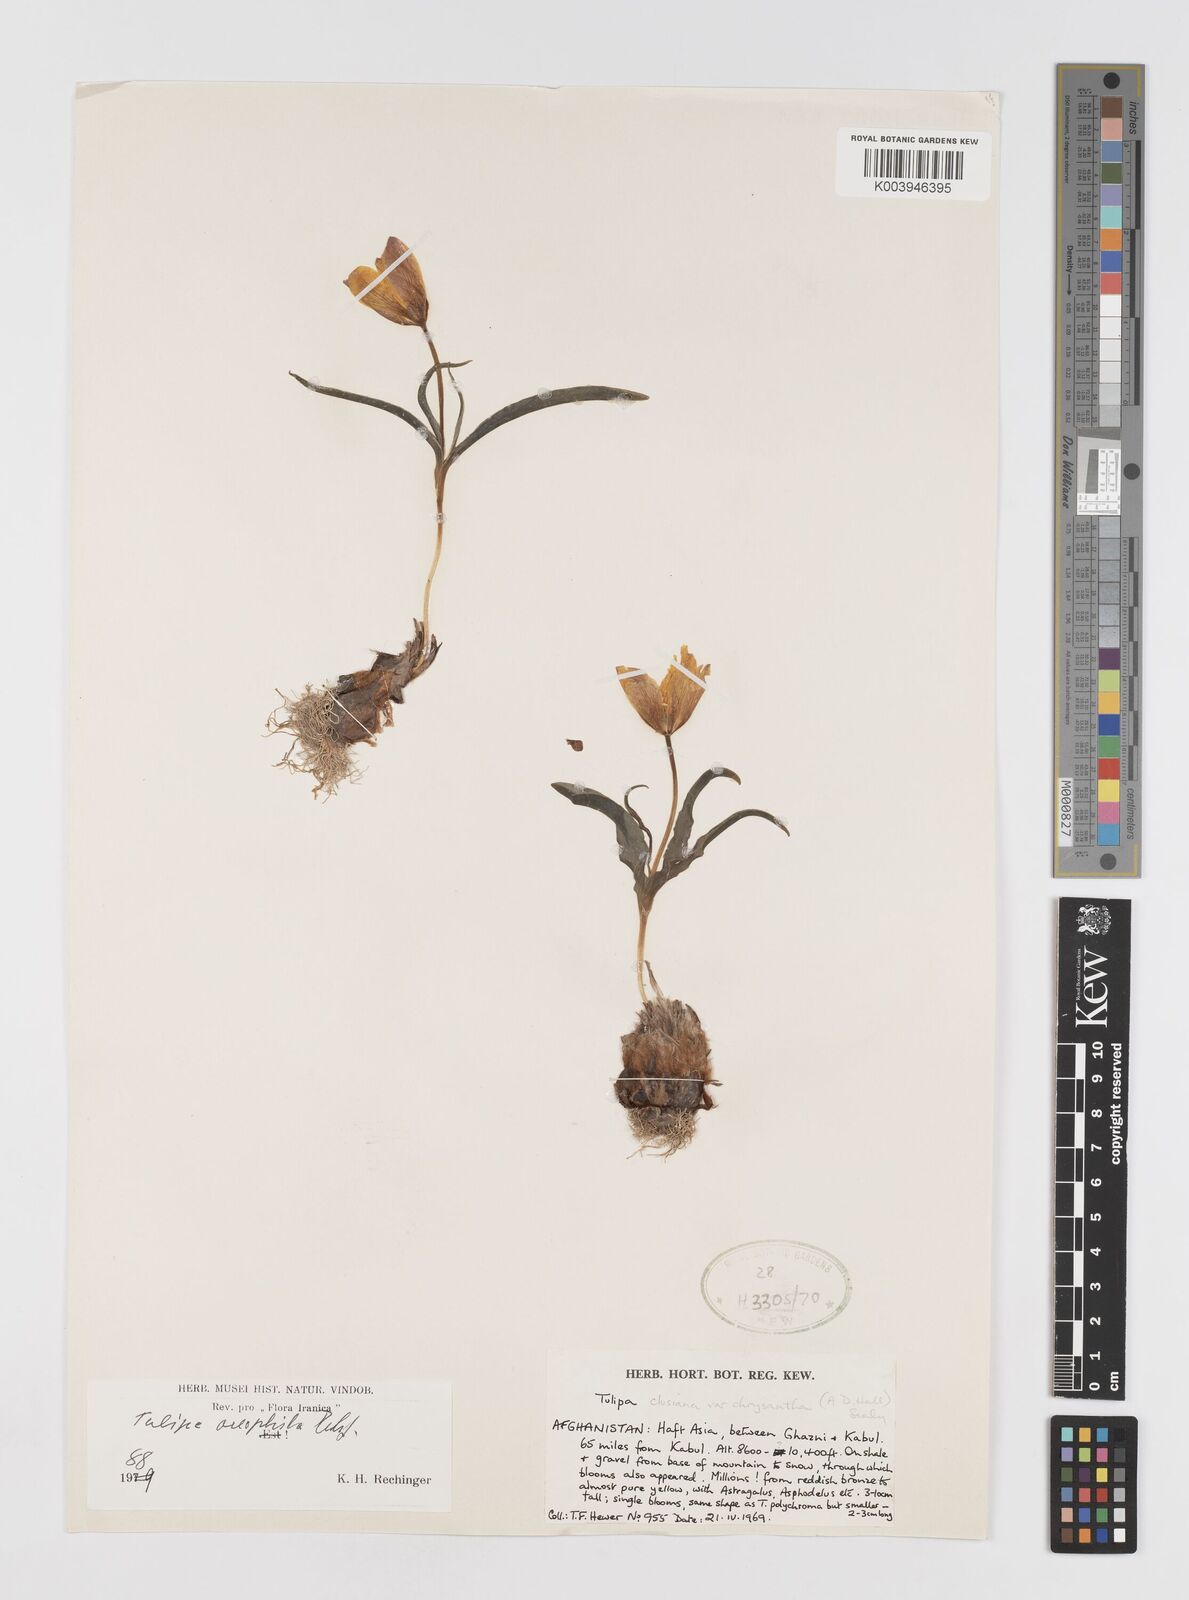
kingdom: Plantae
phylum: Tracheophyta
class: Liliopsida
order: Liliales
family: Liliaceae
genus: Tulipa
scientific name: Tulipa clusiana
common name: Lady tulip
